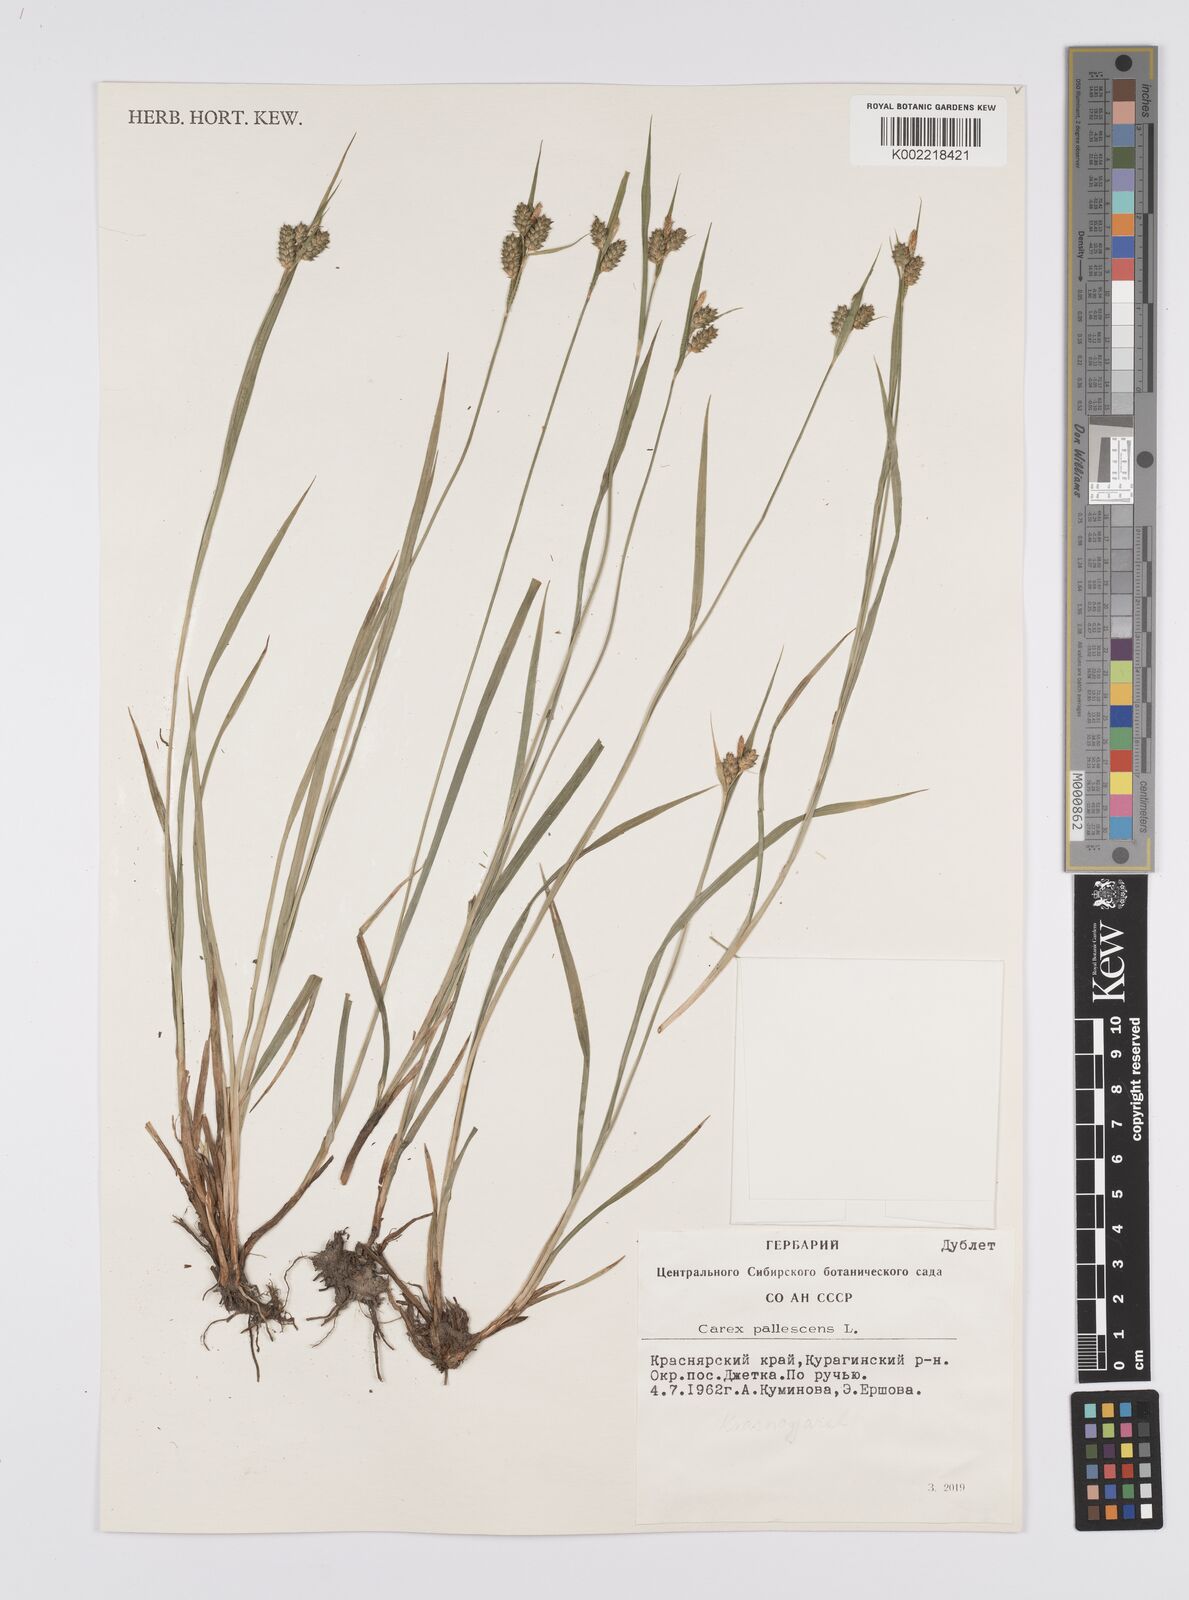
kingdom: Plantae
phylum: Tracheophyta
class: Liliopsida
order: Poales
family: Cyperaceae
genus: Carex
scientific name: Carex pallescens
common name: Pale sedge
